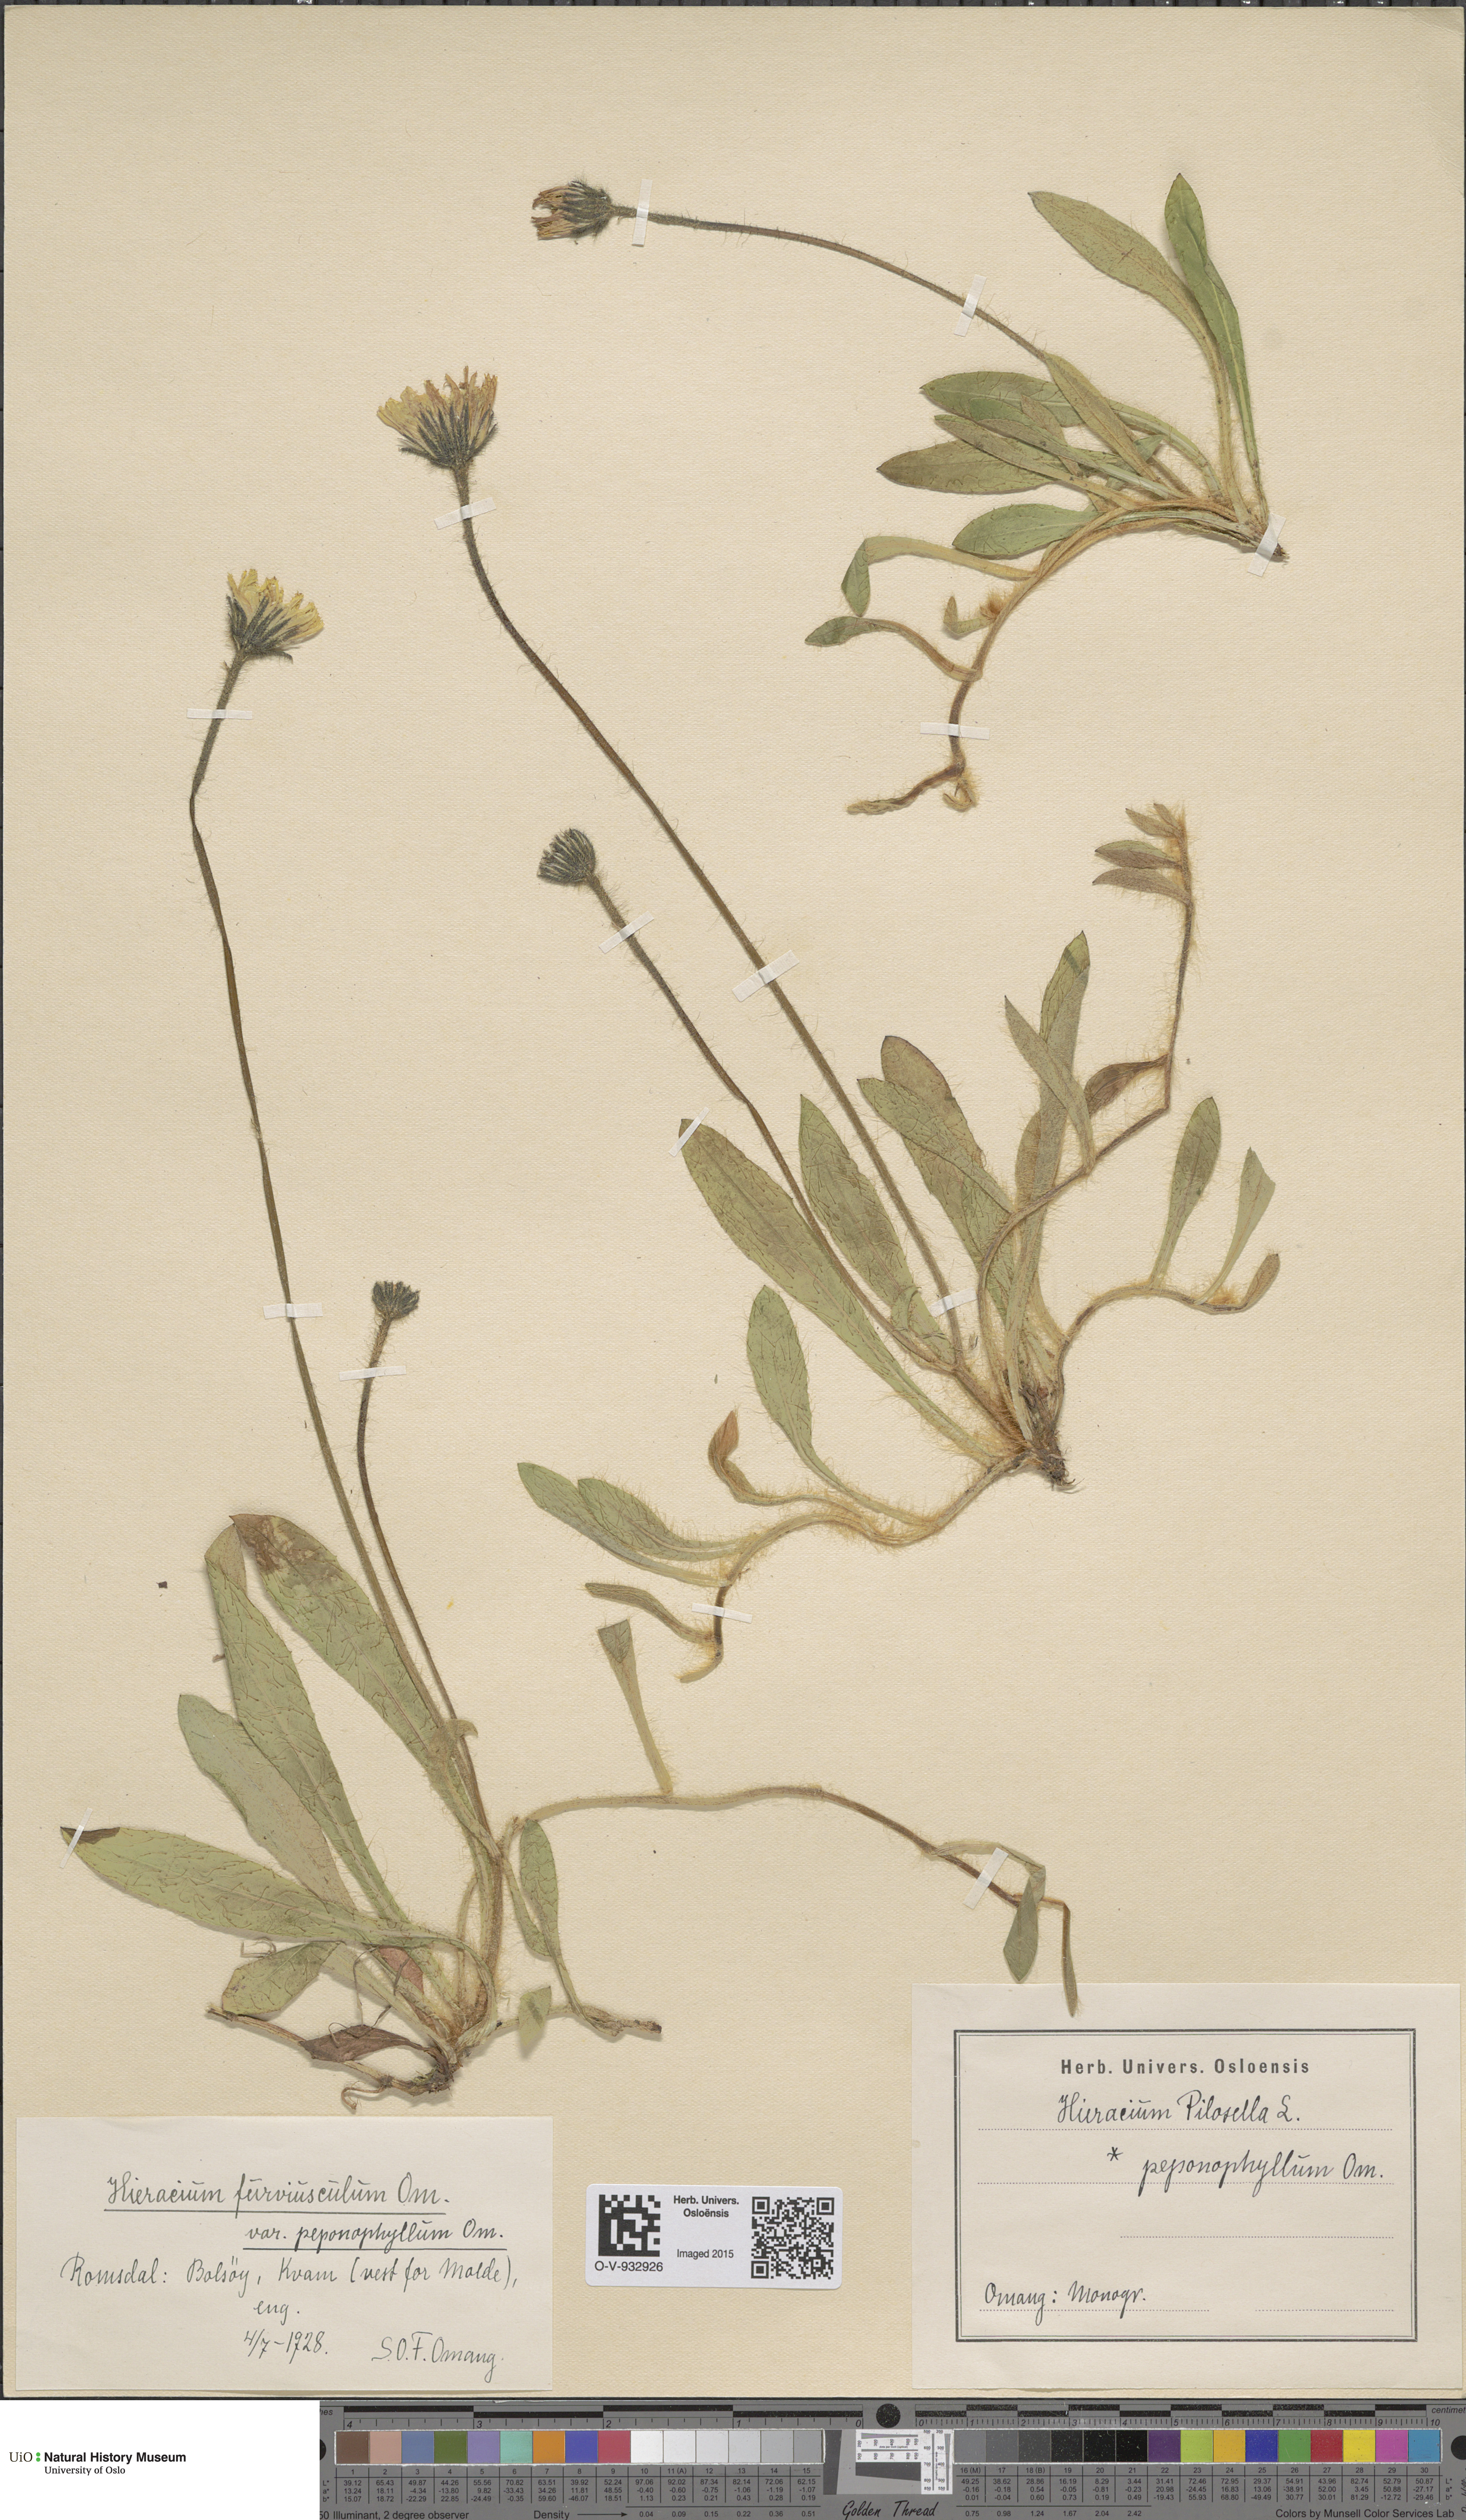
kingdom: Plantae
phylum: Tracheophyta
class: Magnoliopsida
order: Asterales
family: Asteraceae
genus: Pilosella
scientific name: Pilosella officinarum
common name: Mouse-ear hawkweed
